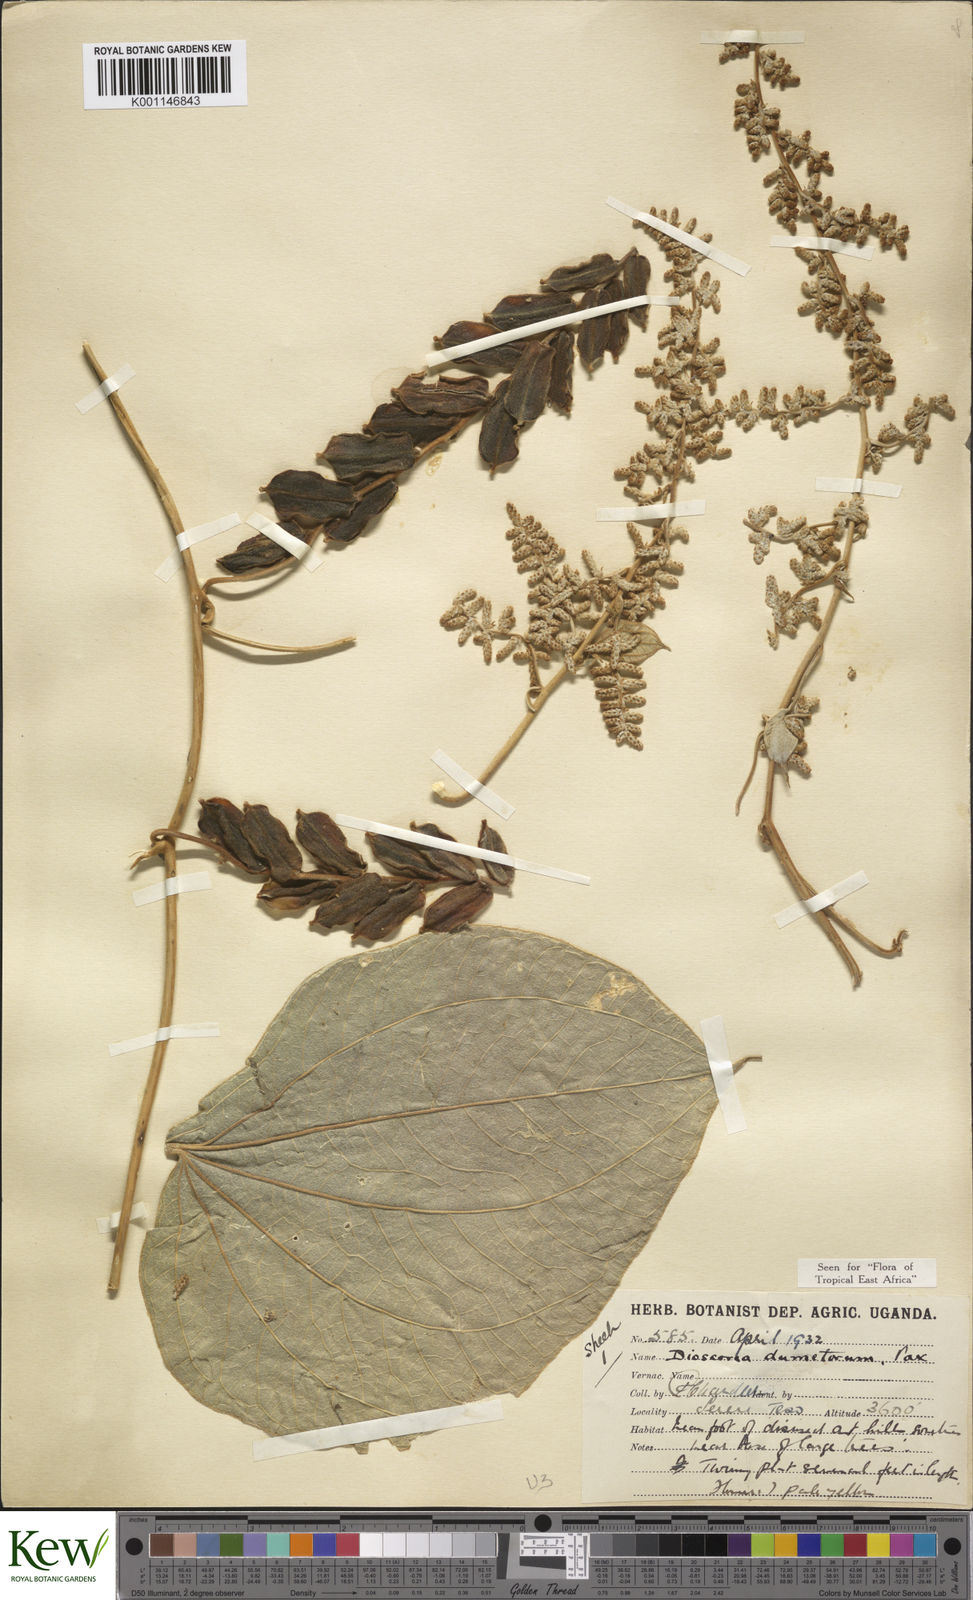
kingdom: Plantae
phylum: Tracheophyta
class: Liliopsida
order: Dioscoreales
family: Dioscoreaceae
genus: Dioscorea
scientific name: Dioscorea dumetorum
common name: African bitter yam
